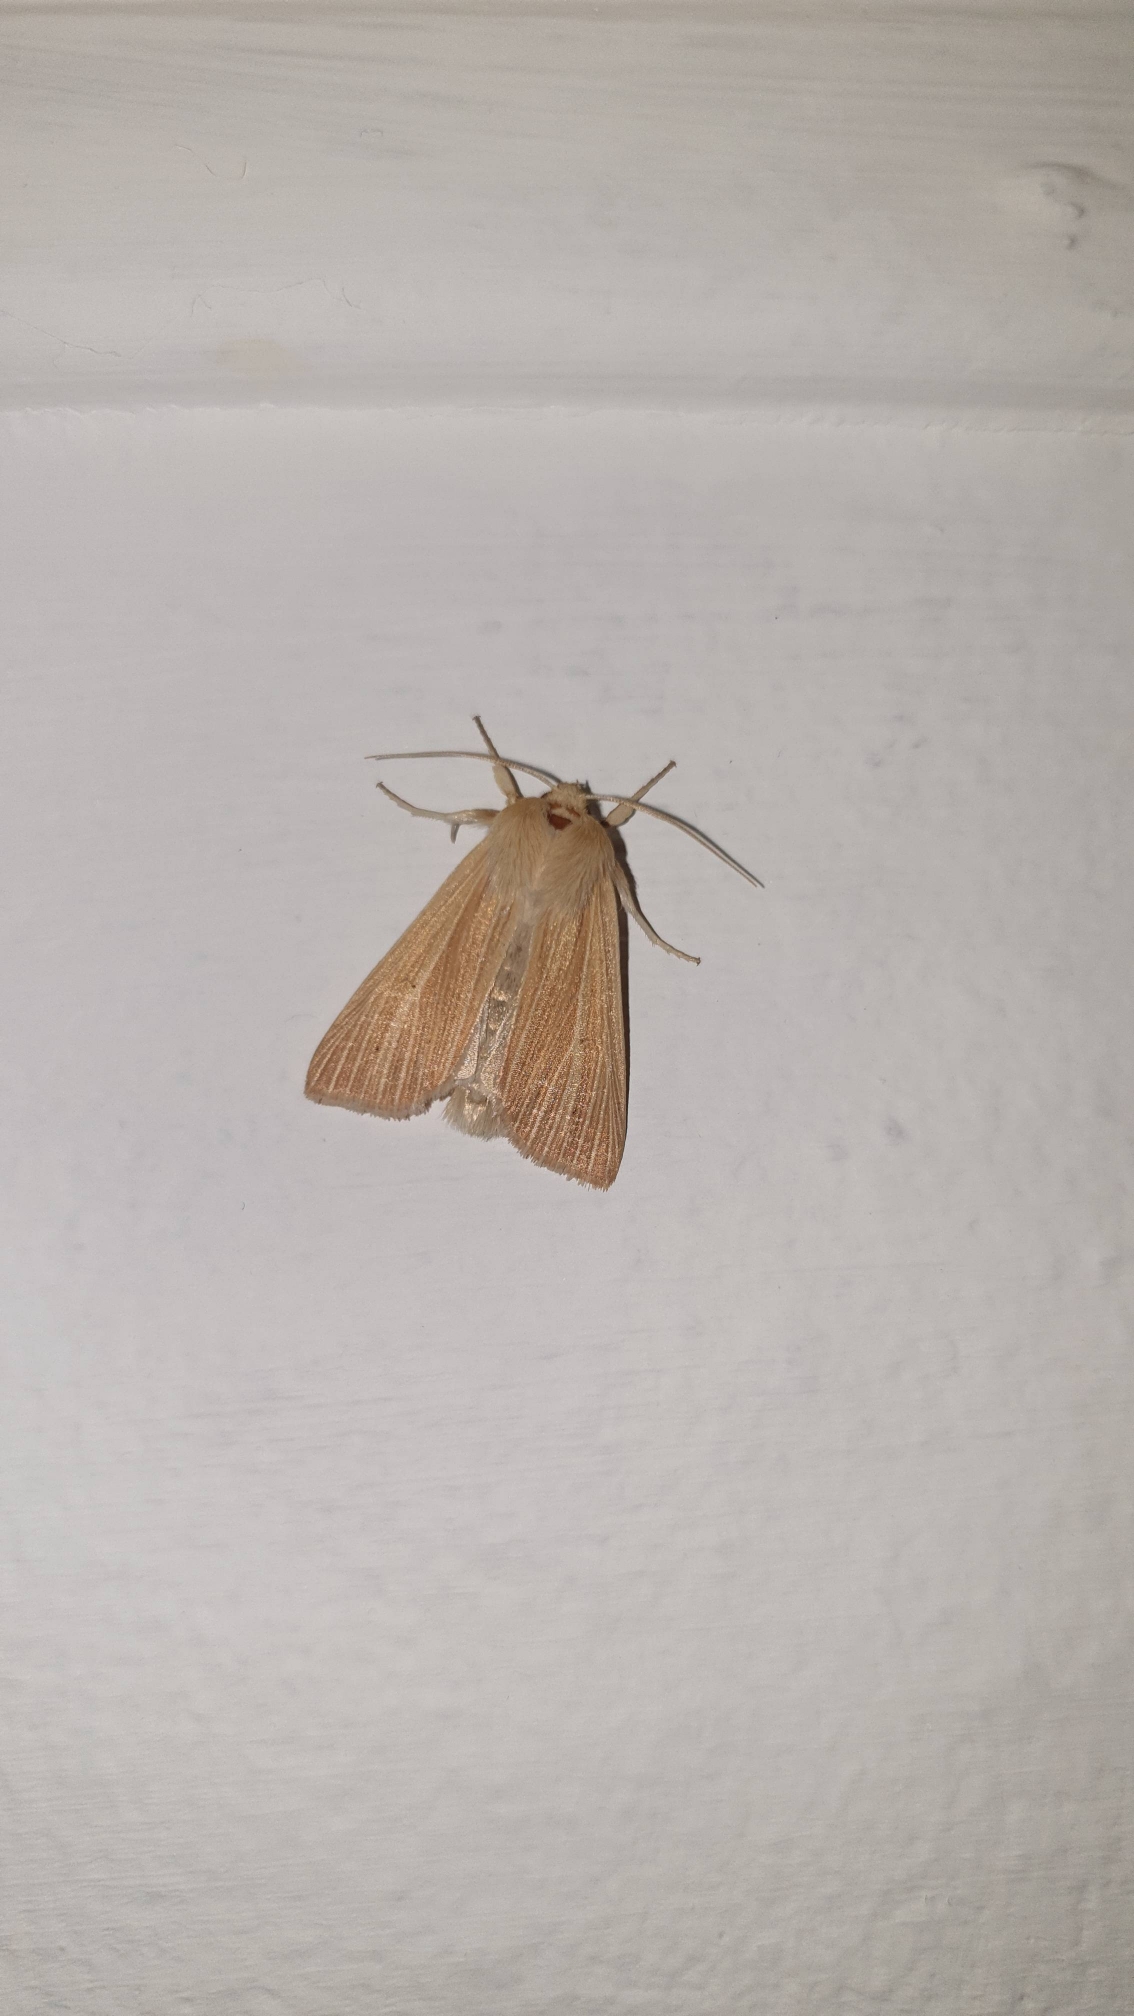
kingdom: Animalia
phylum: Arthropoda
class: Insecta
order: Lepidoptera
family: Noctuidae
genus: Mythimna
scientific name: Mythimna pallens
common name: Halmugle
